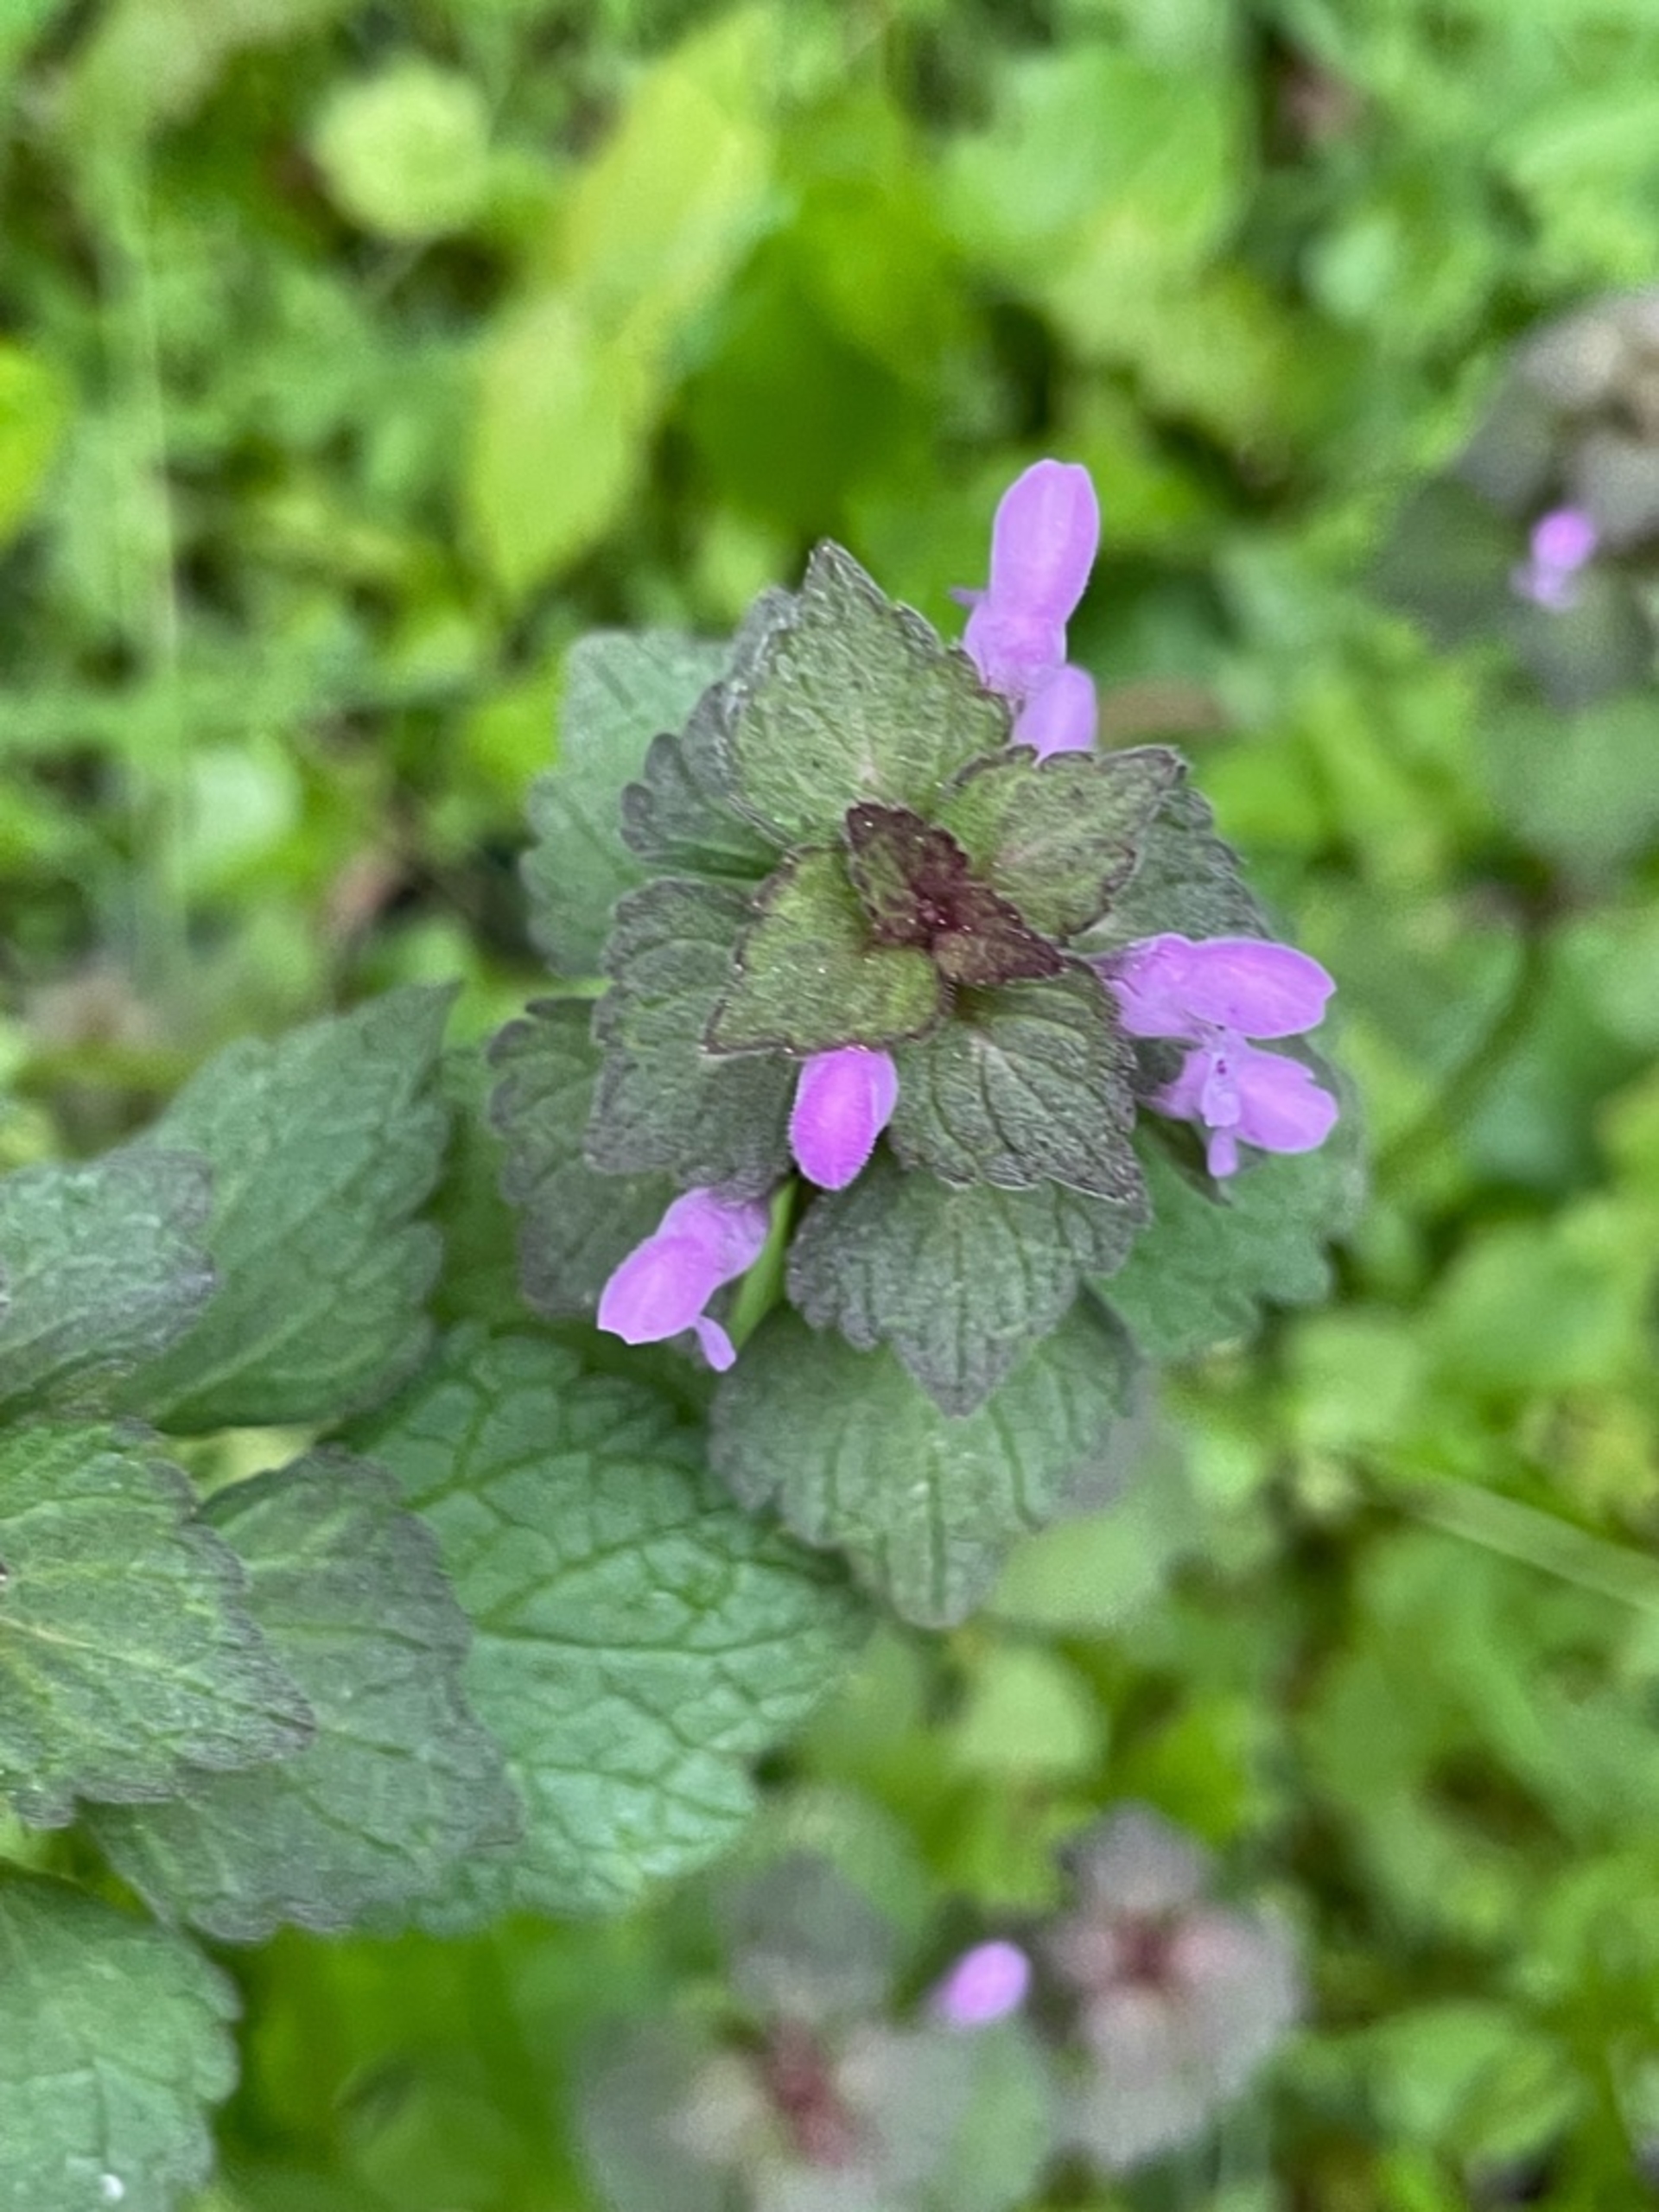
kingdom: Plantae
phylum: Tracheophyta
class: Magnoliopsida
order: Lamiales
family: Lamiaceae
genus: Lamium
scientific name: Lamium purpureum
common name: Rød tvetand
